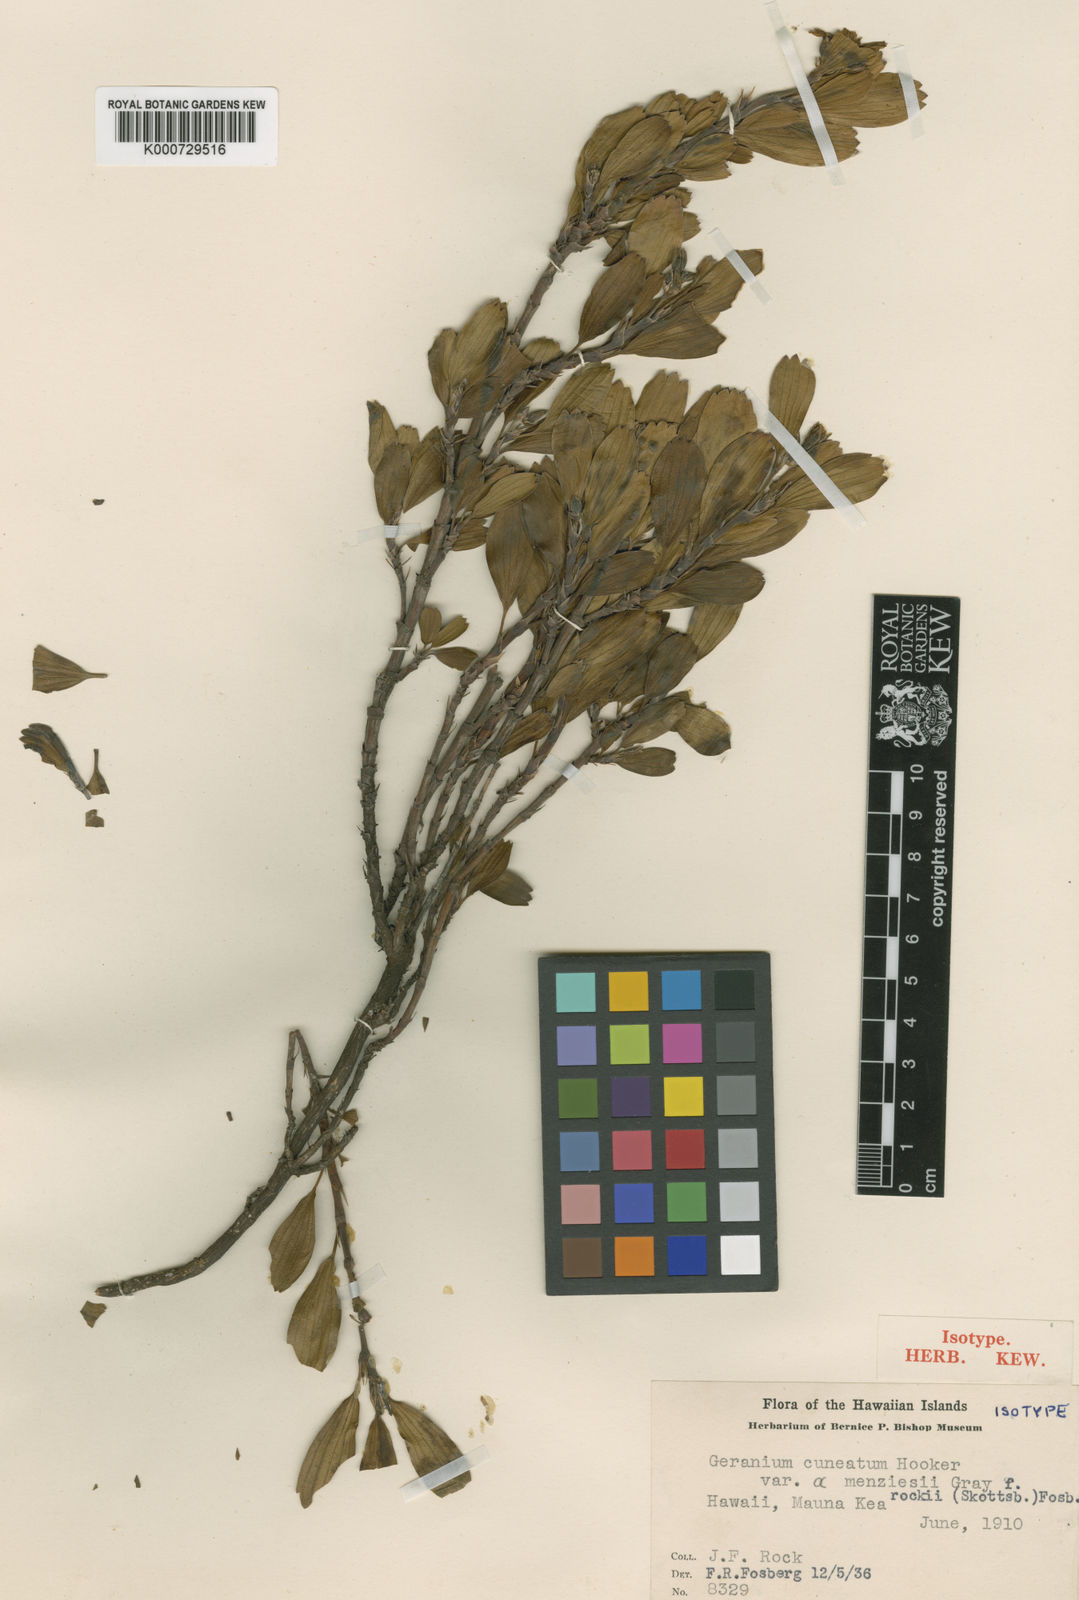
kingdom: Plantae
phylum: Tracheophyta
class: Magnoliopsida
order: Geraniales
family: Geraniaceae
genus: Geranium
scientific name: Geranium cuneatum
